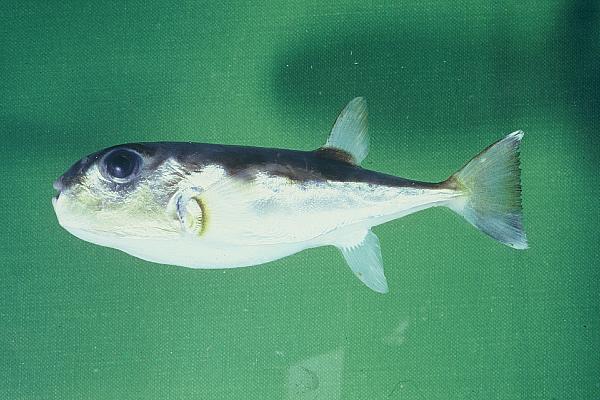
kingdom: Animalia
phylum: Chordata
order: Tetraodontiformes
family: Tetraodontidae
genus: Lagocephalus
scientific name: Lagocephalus guentheri
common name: Diamondback puffer
